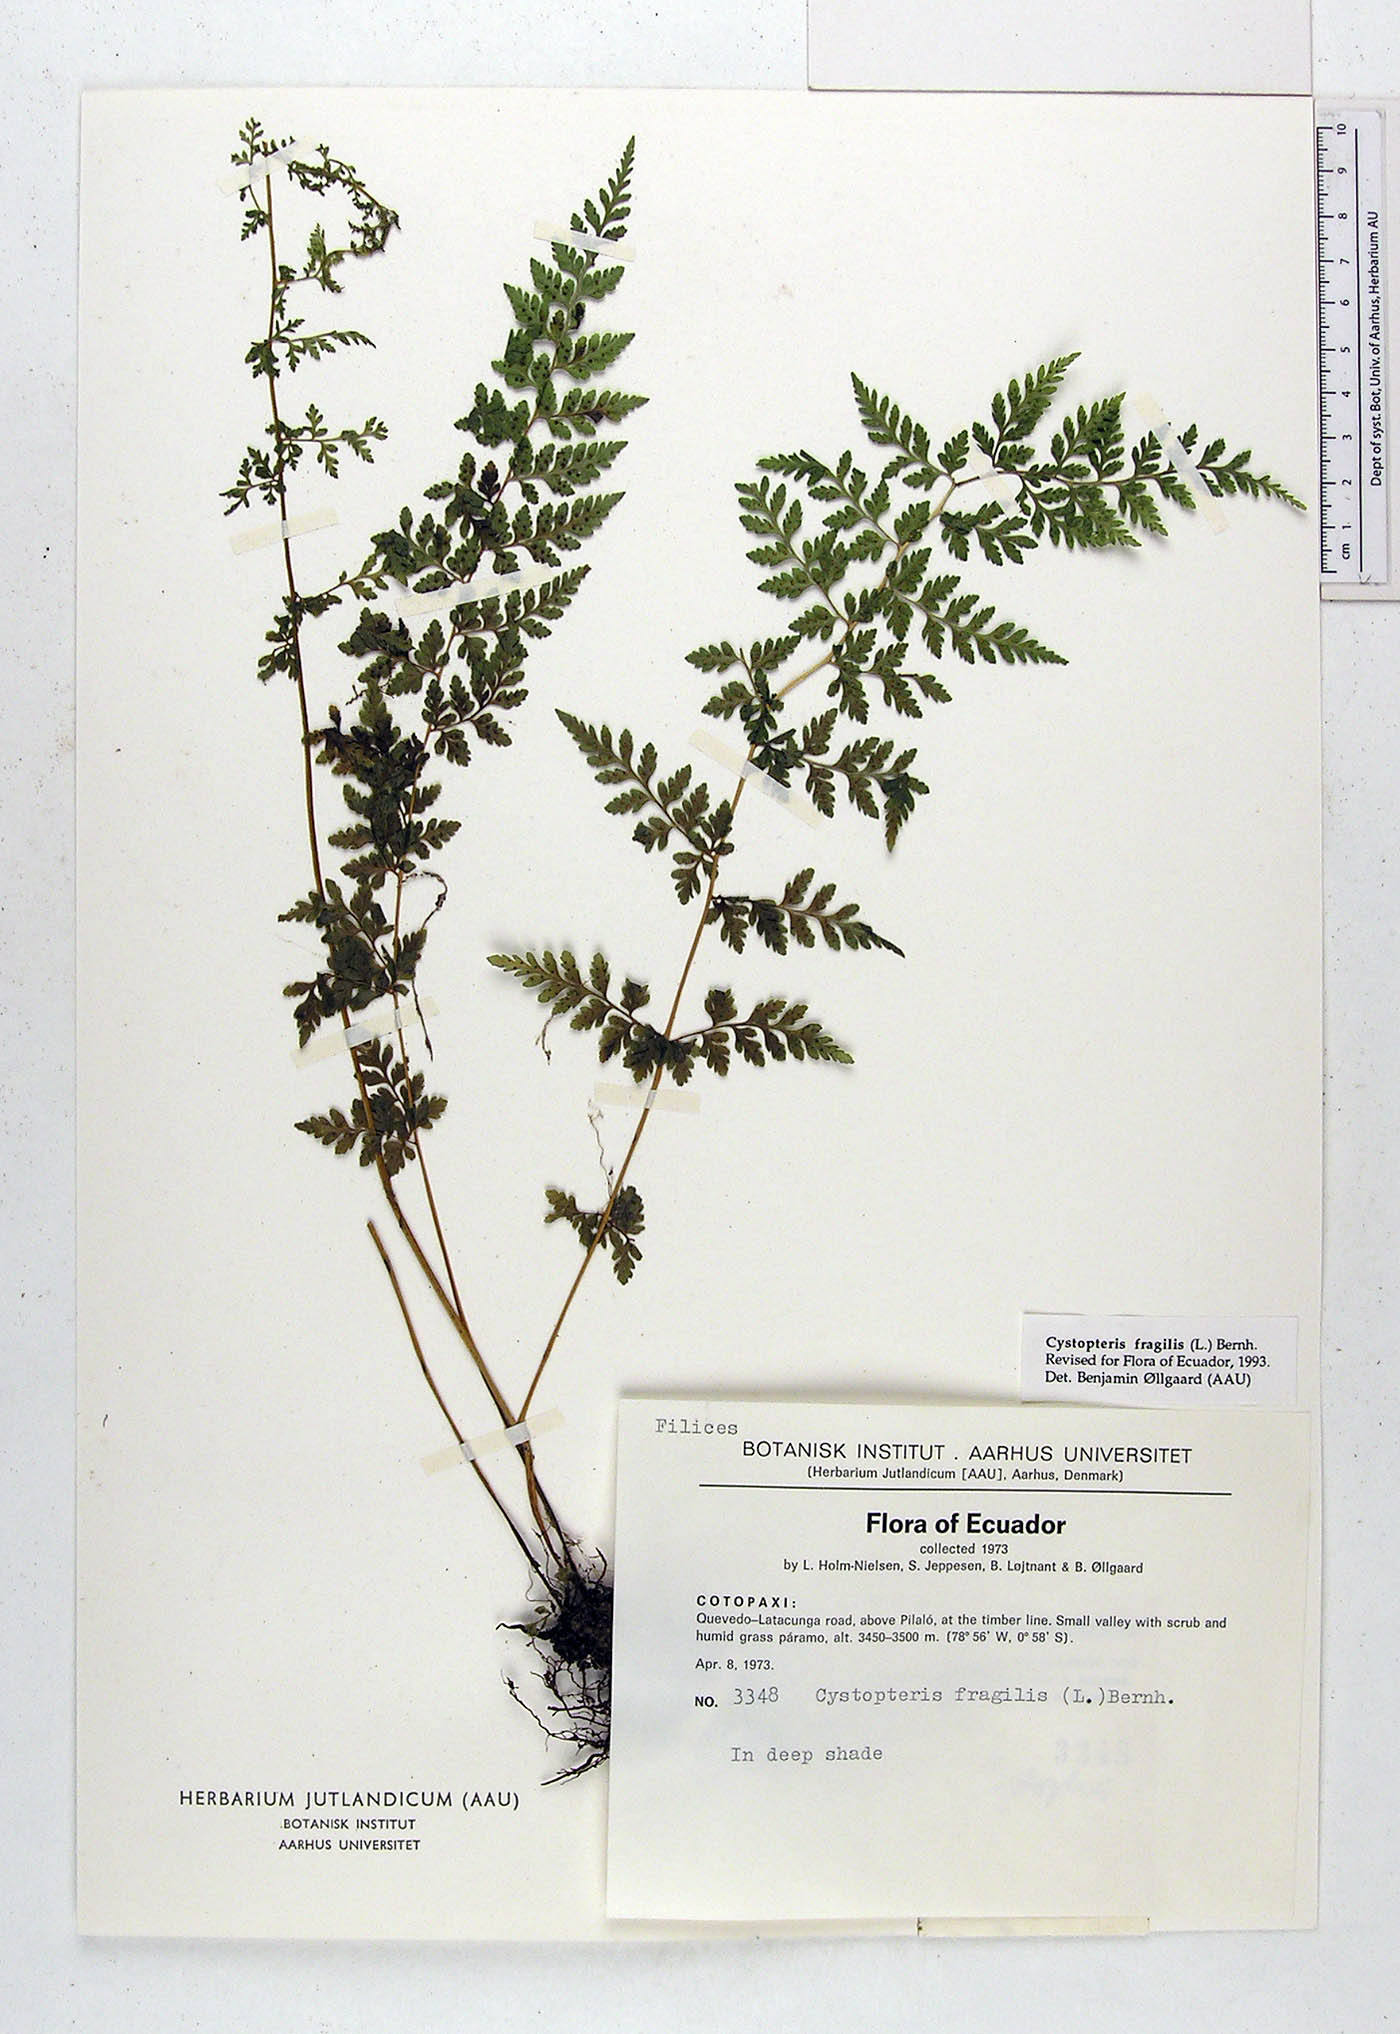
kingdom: Plantae
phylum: Tracheophyta
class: Polypodiopsida
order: Polypodiales
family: Cystopteridaceae
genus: Cystopteris
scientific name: Cystopteris fragilis
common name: Brittle bladder fern
